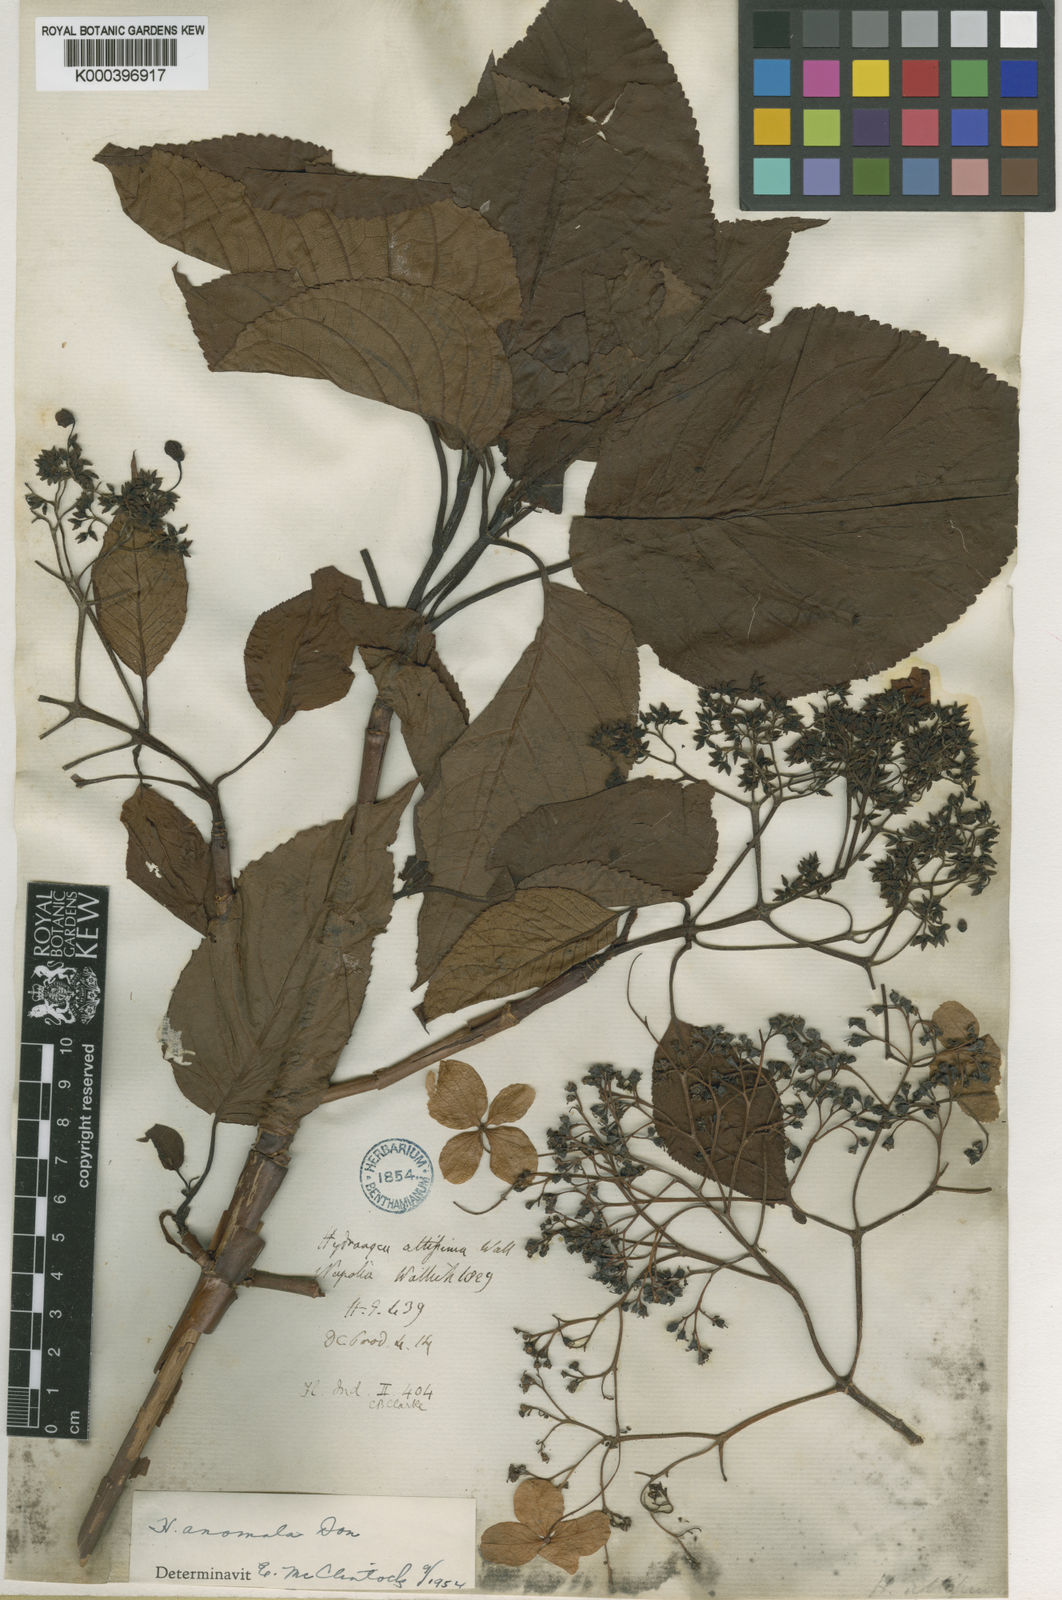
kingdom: Plantae
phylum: Tracheophyta
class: Magnoliopsida
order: Cornales
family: Hydrangeaceae
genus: Hydrangea
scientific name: Hydrangea anomala
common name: Japanese climbing-hydrangea
